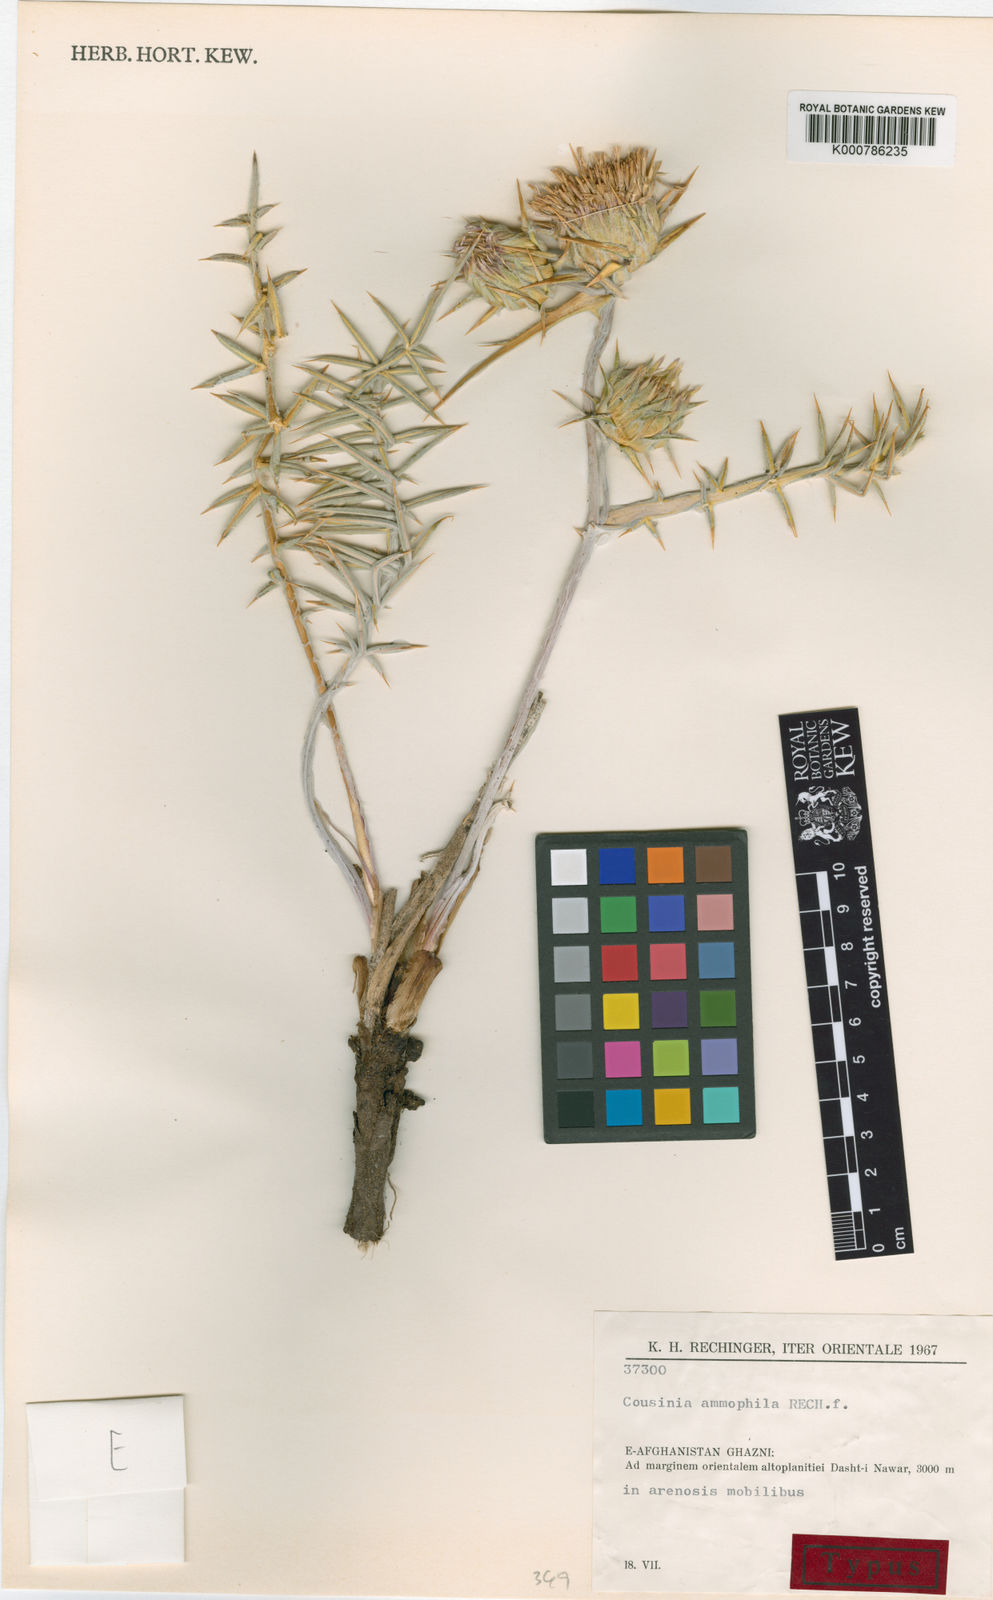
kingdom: Plantae
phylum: Tracheophyta
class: Magnoliopsida
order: Asterales
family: Asteraceae
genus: Cousinia
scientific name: Cousinia ammophila
